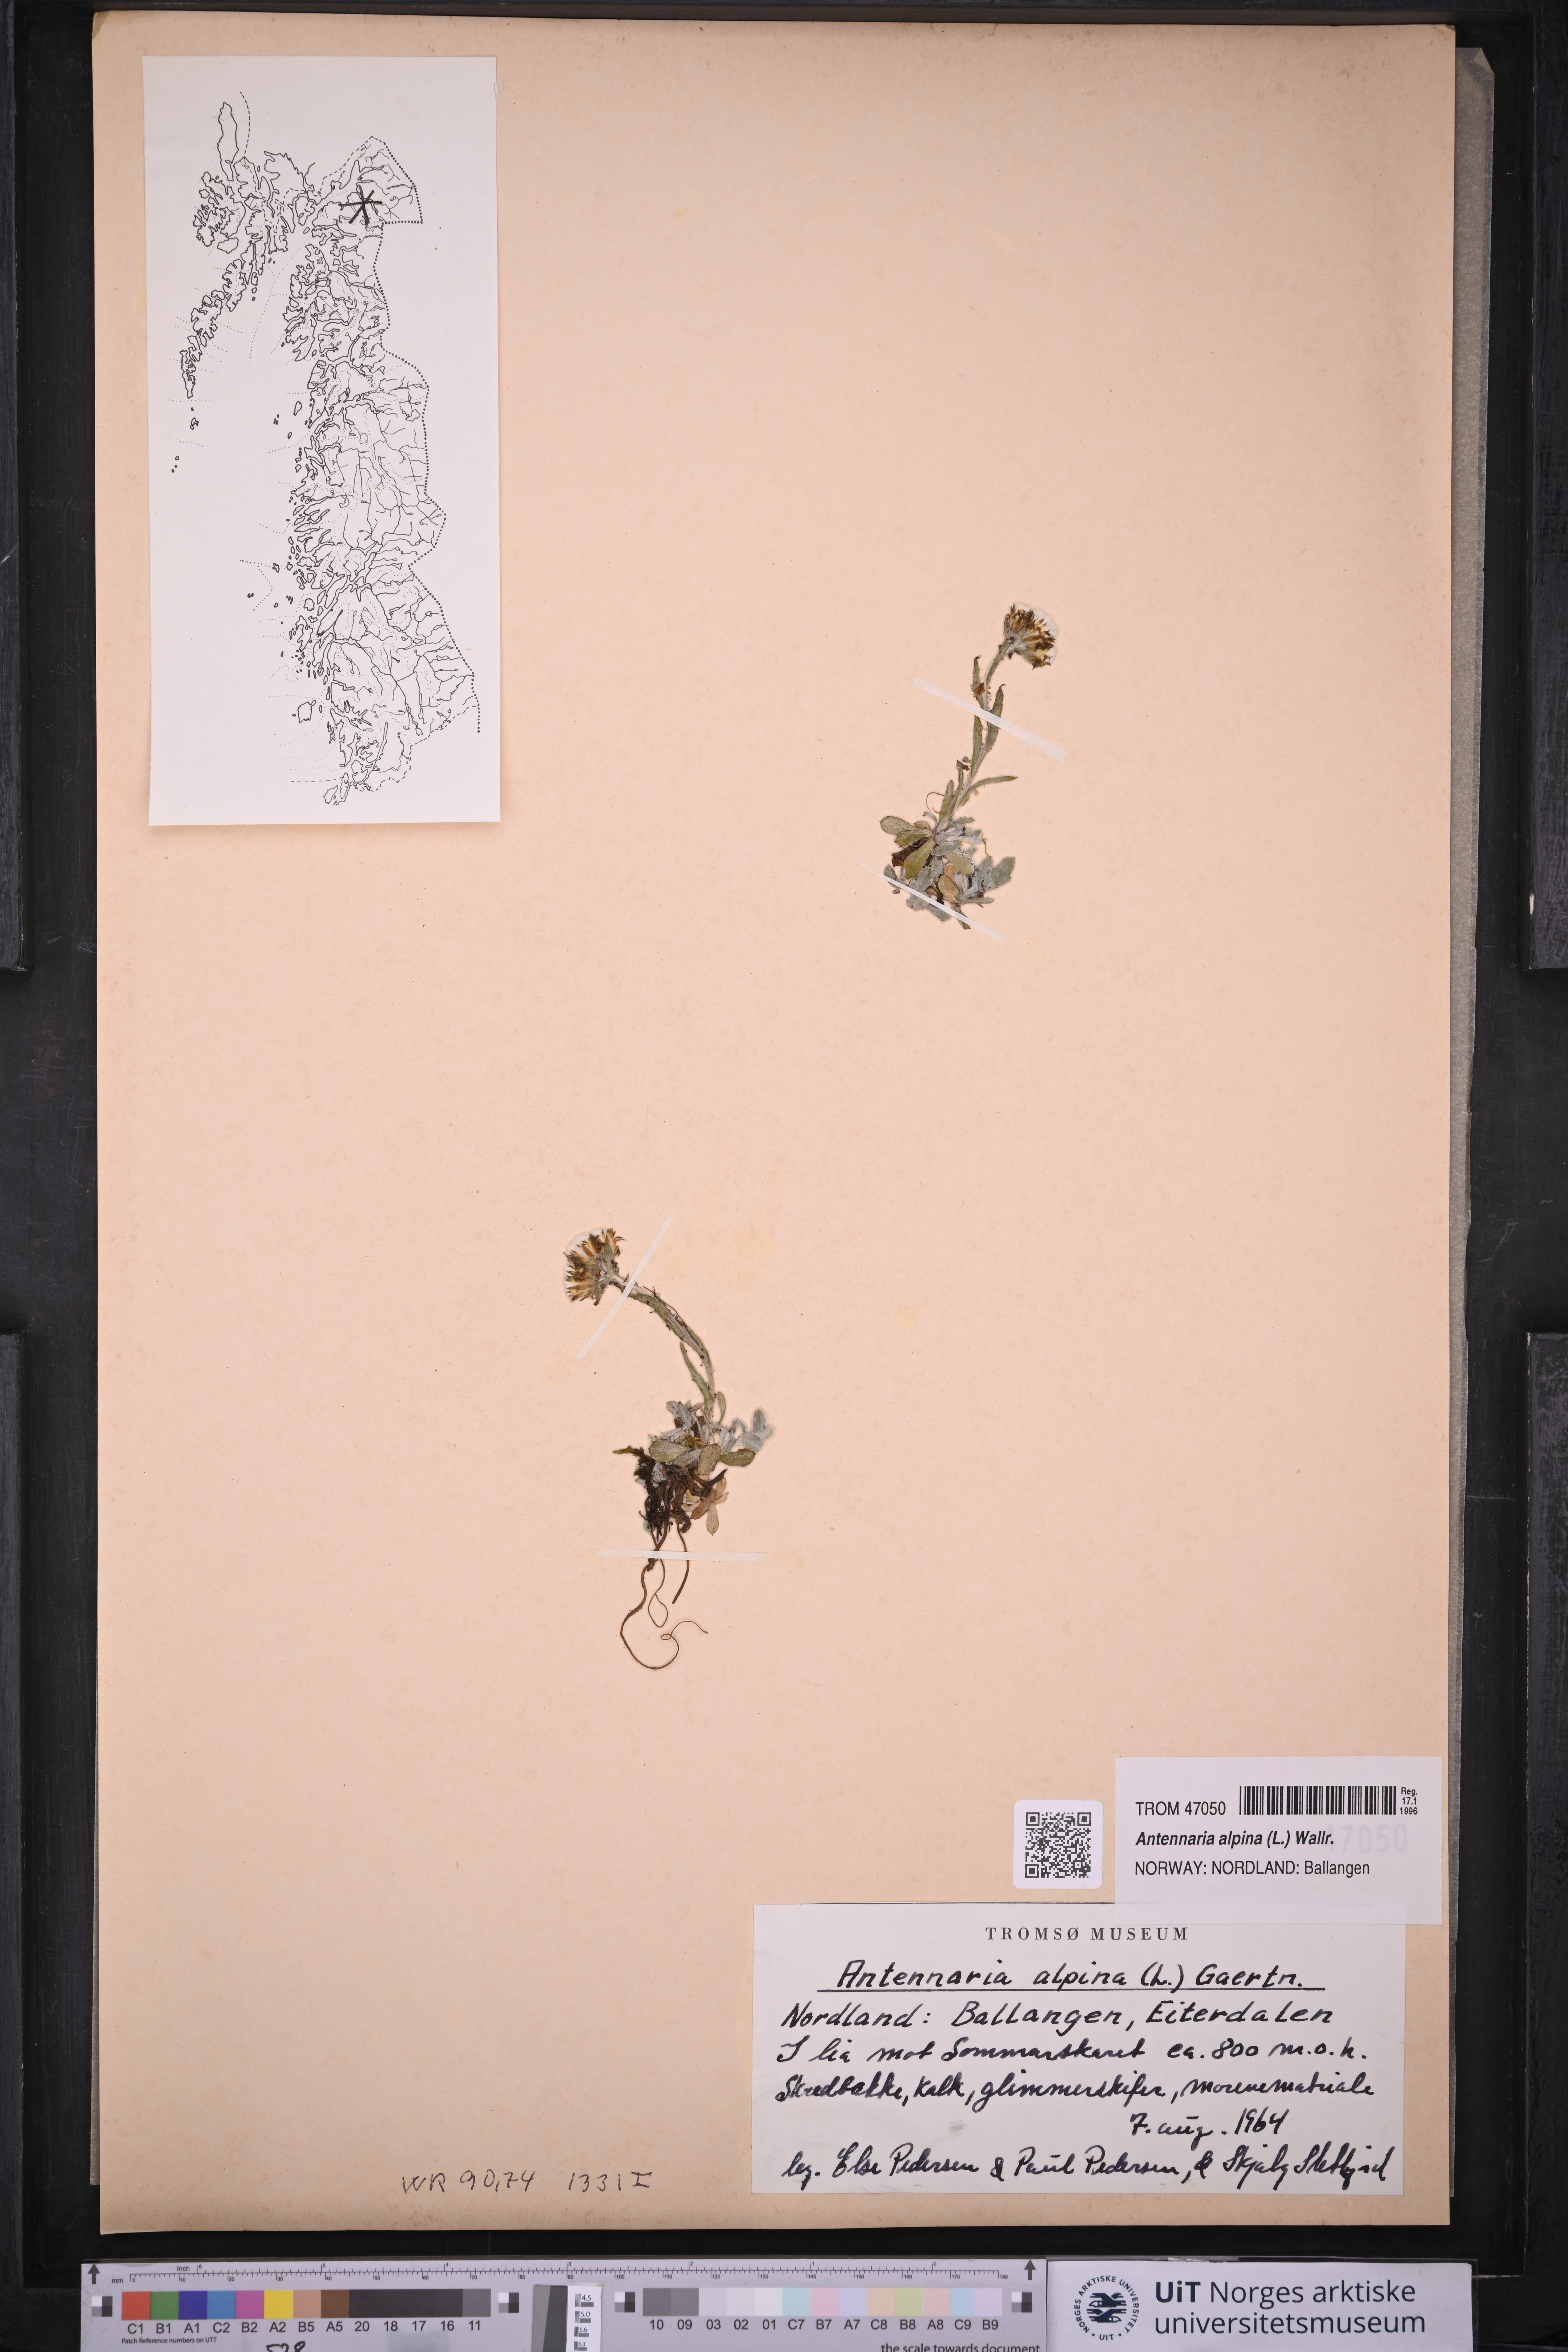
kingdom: Plantae
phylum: Tracheophyta
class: Magnoliopsida
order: Asterales
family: Asteraceae
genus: Antennaria
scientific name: Antennaria alpina
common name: Alpine pussytoes
